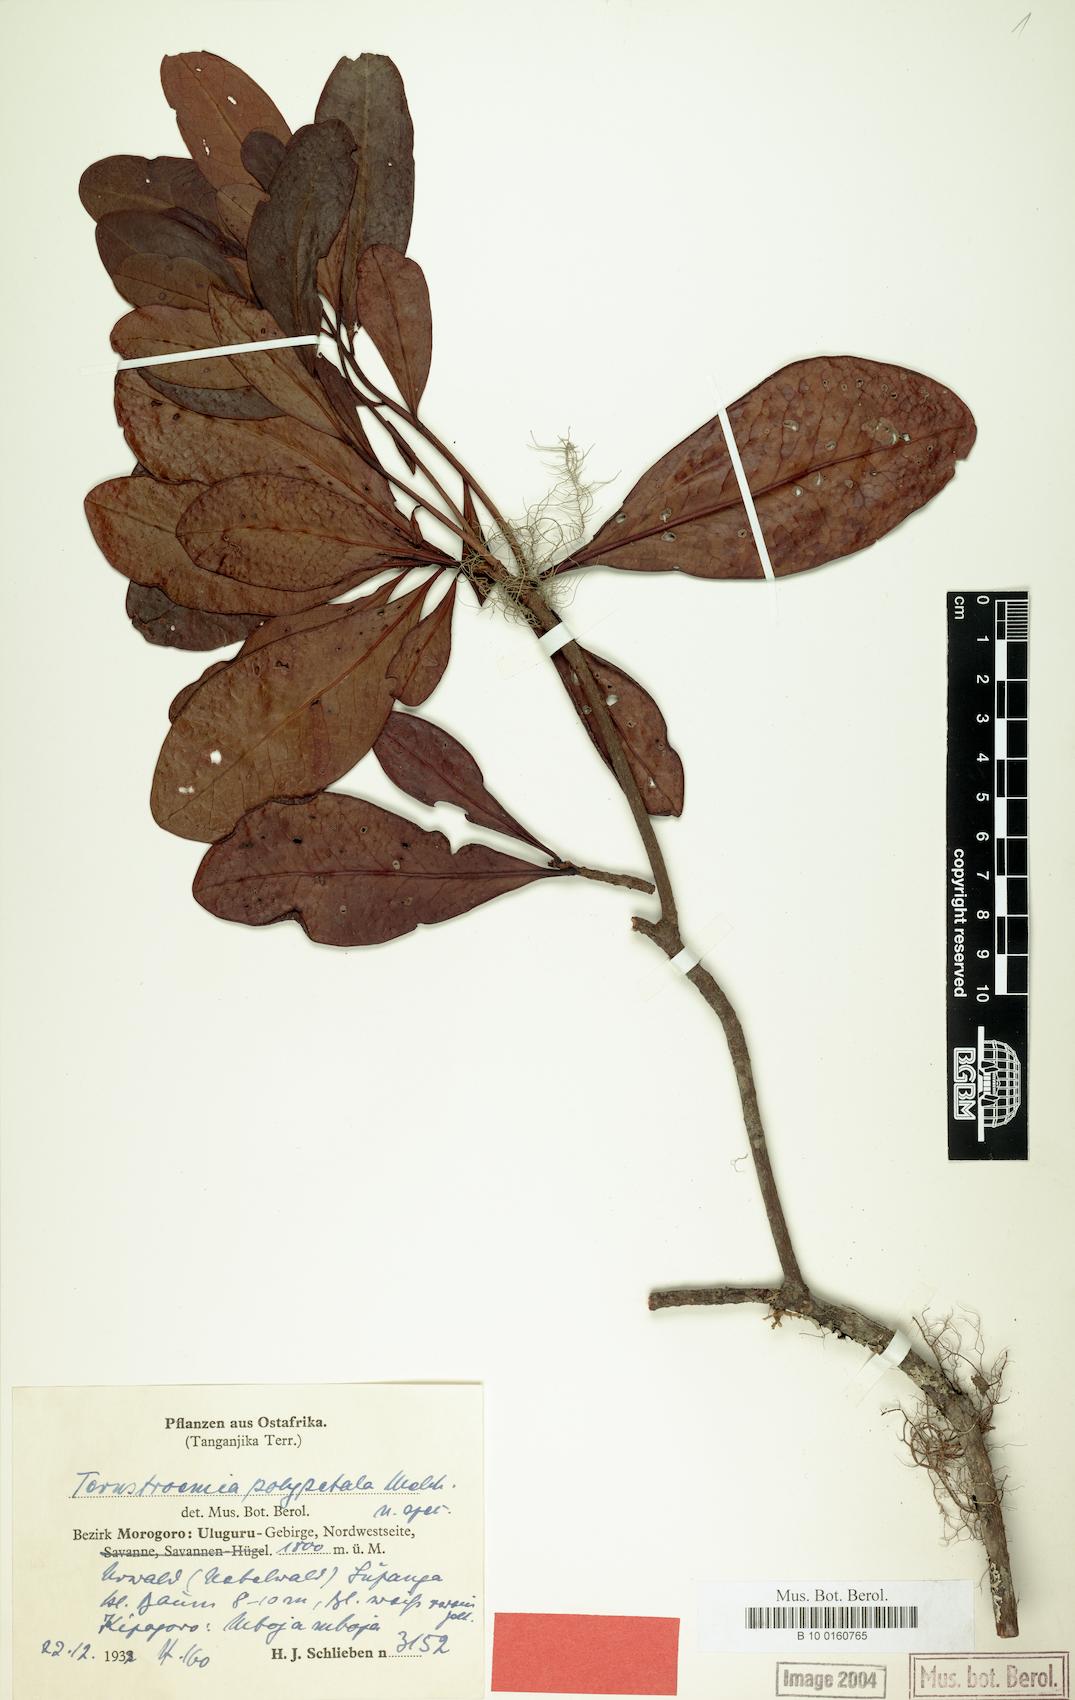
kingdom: Plantae
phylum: Tracheophyta
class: Magnoliopsida
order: Ericales
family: Pentaphylacaceae
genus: Ternstroemia
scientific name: Ternstroemia polypetala
